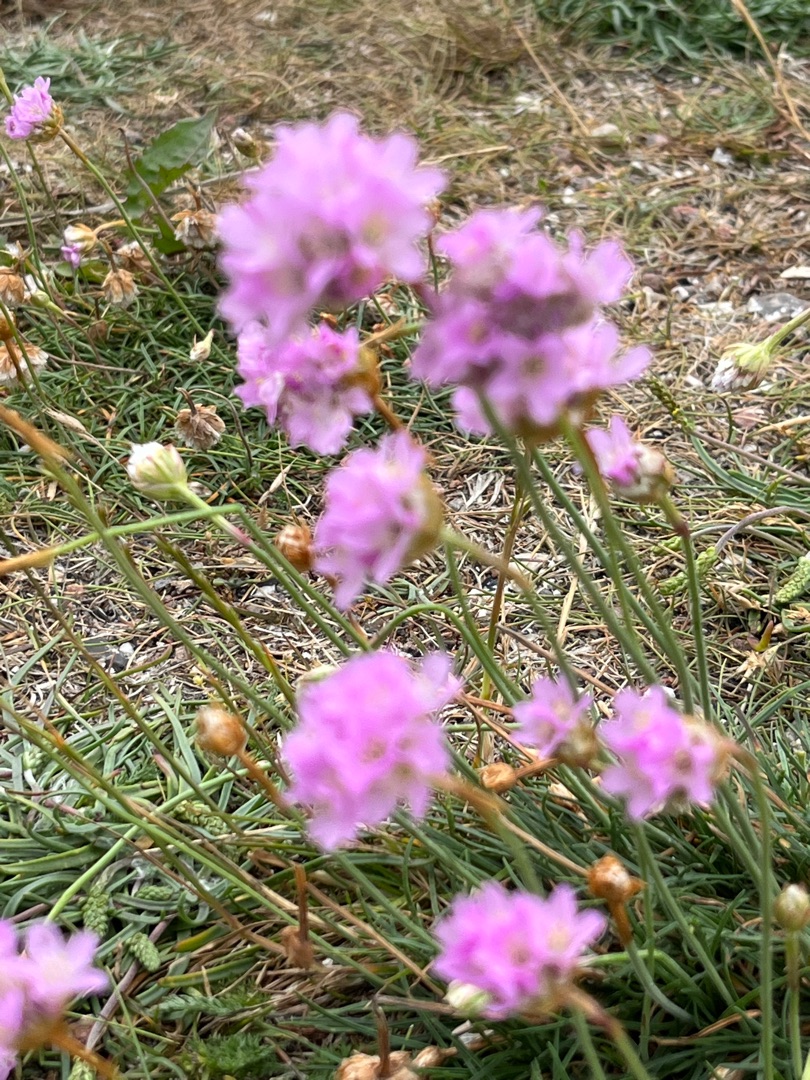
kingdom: Plantae
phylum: Tracheophyta
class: Magnoliopsida
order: Caryophyllales
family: Plumbaginaceae
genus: Armeria
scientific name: Armeria maritima
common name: Engelskgræs
